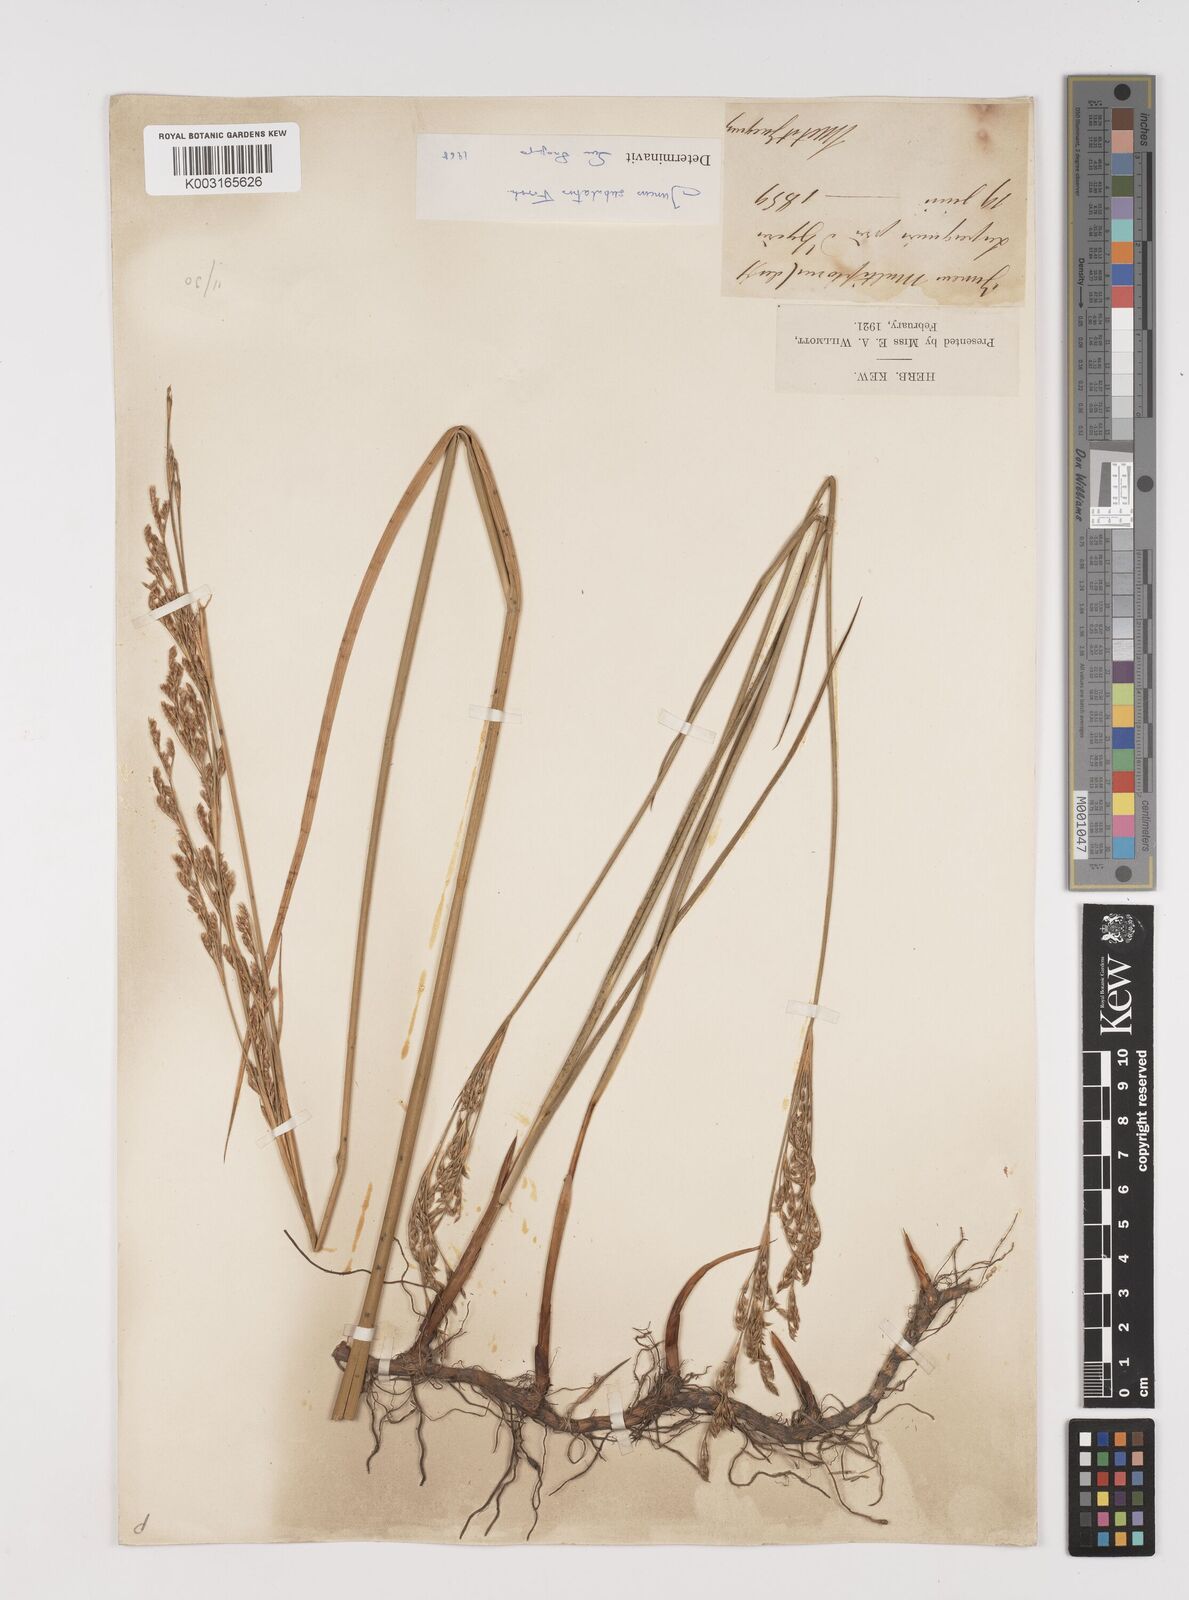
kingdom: Plantae
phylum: Tracheophyta
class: Liliopsida
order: Poales
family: Juncaceae
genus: Juncus
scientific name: Juncus subulatus
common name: Somerset rush
